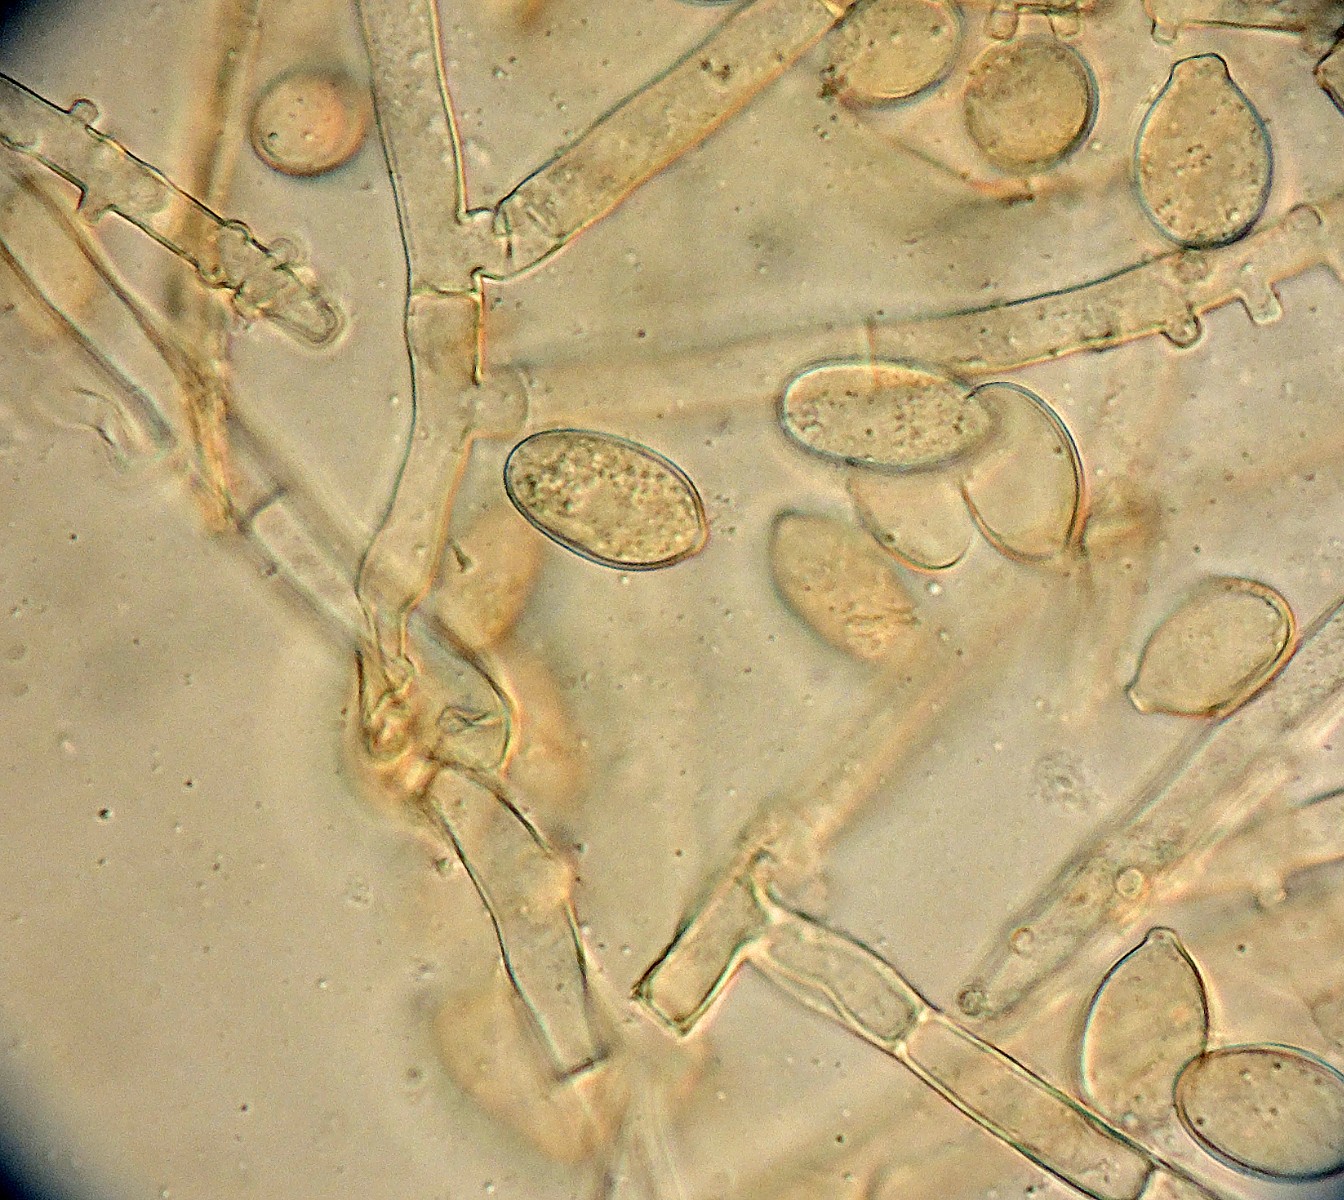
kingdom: Fungi
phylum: Basidiomycota
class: Agaricomycetes
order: Cantharellales
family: Botryobasidiaceae
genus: Botryobasidium
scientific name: Botryobasidium ellipsosporum
